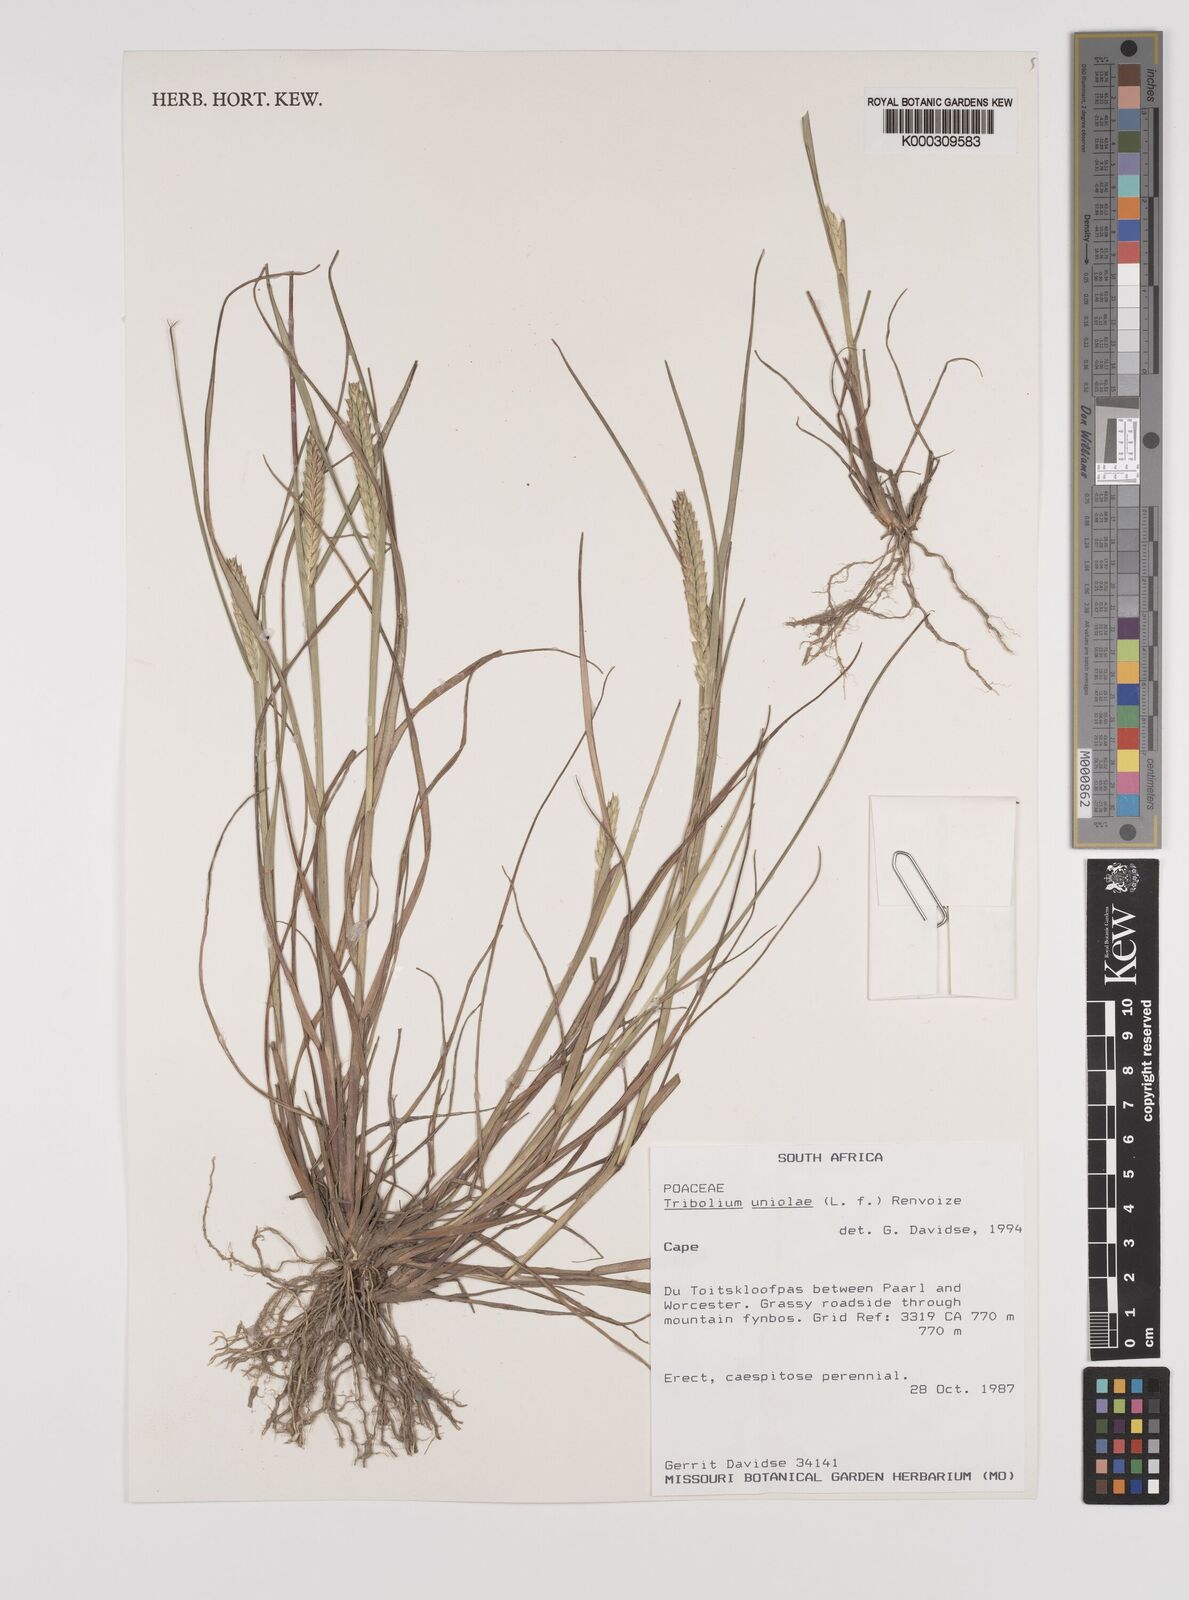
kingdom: Plantae
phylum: Tracheophyta
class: Liliopsida
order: Poales
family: Poaceae
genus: Tribolium
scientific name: Tribolium uniolae
